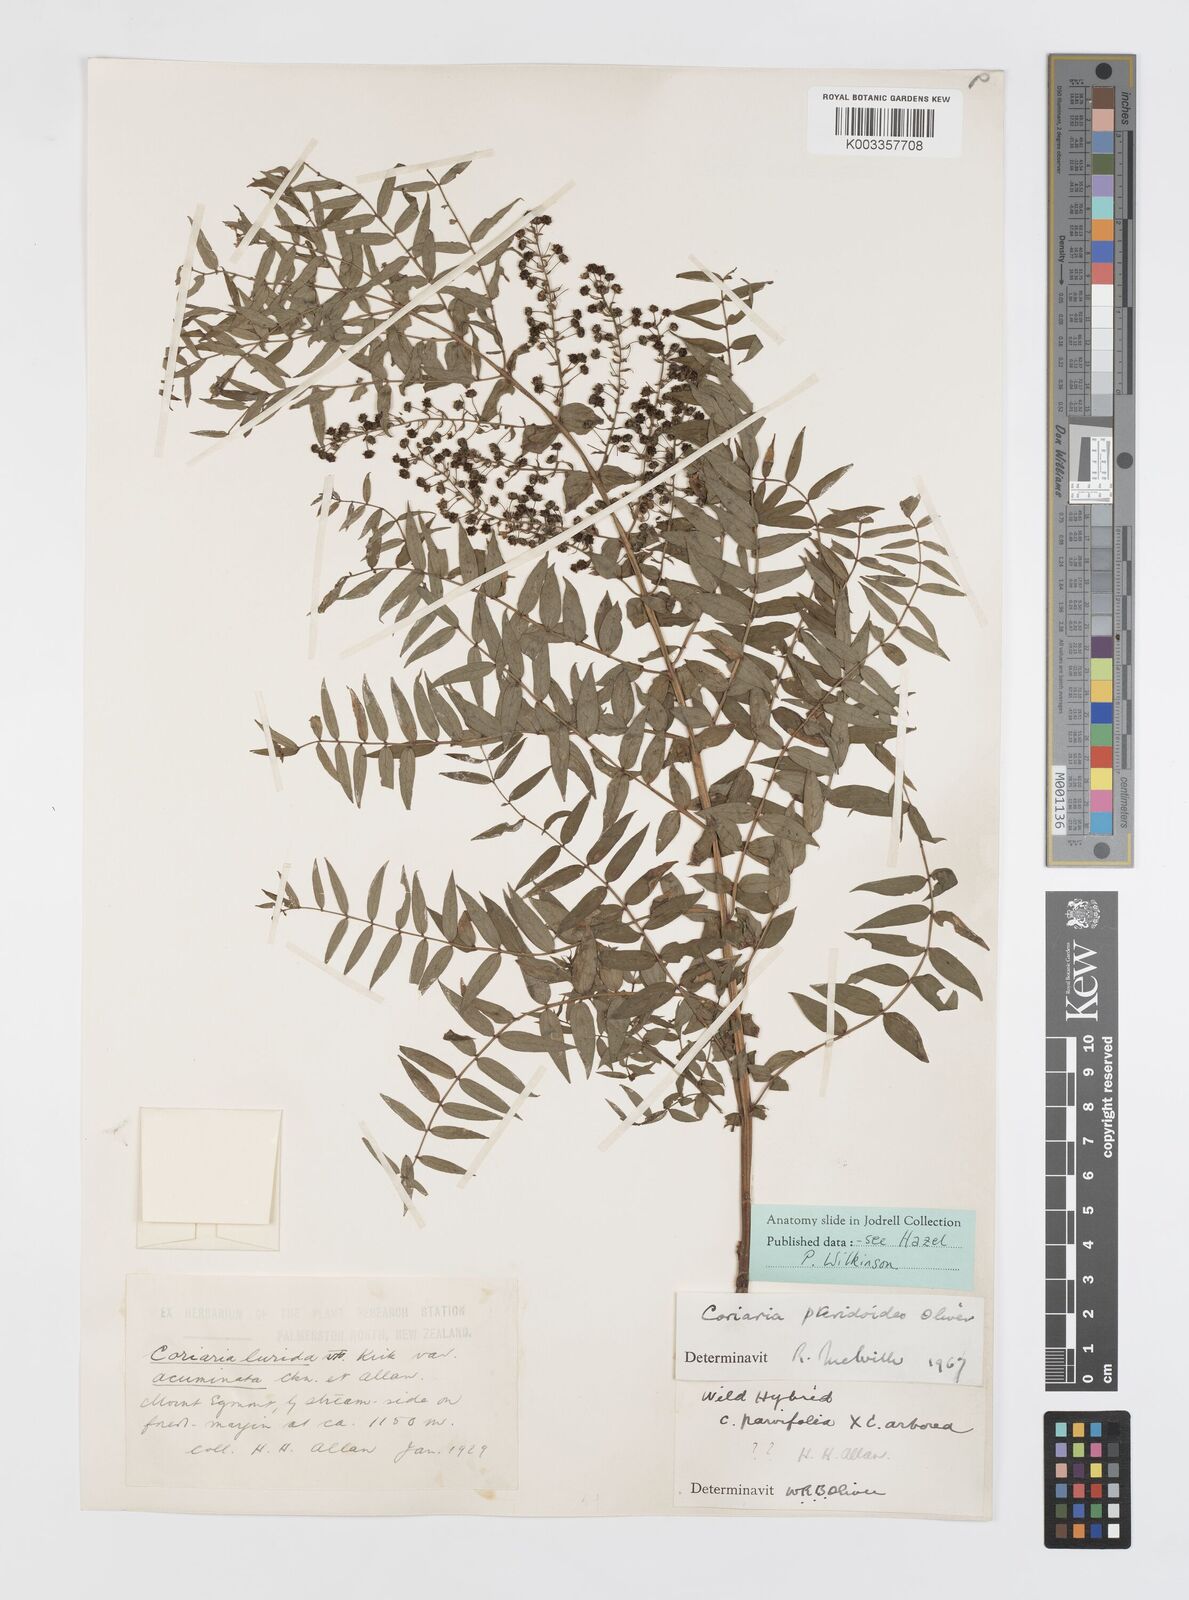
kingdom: Plantae
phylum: Tracheophyta
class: Magnoliopsida
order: Cucurbitales
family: Coriariaceae
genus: Coriaria
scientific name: Coriaria pteridoides
